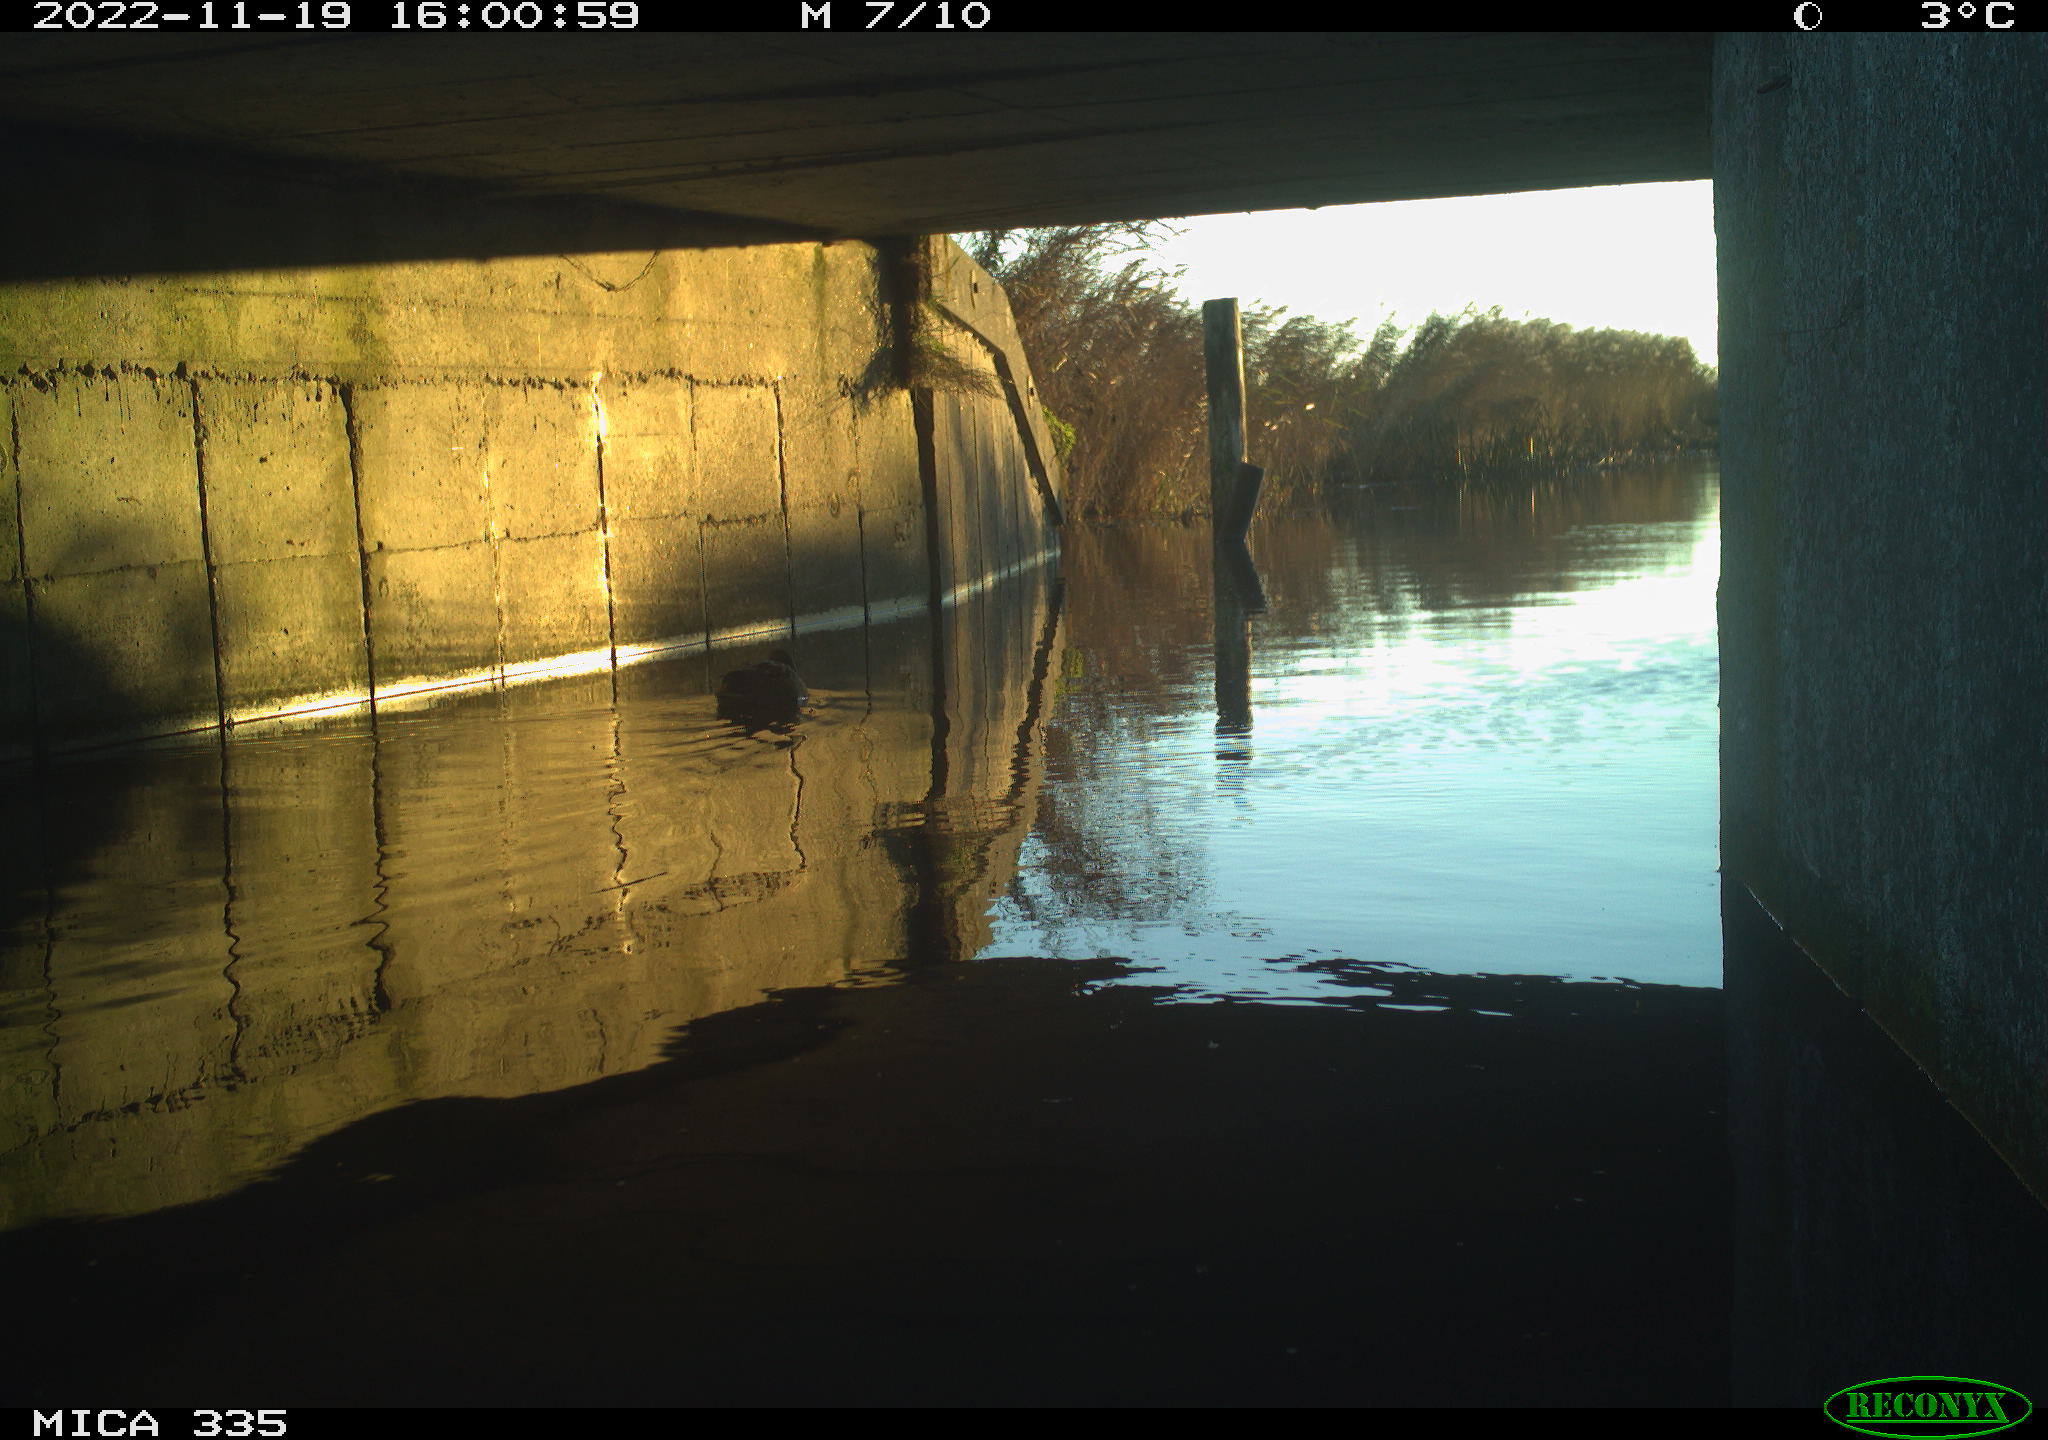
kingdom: Animalia
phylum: Chordata
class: Aves
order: Anseriformes
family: Anatidae
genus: Anas
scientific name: Anas
